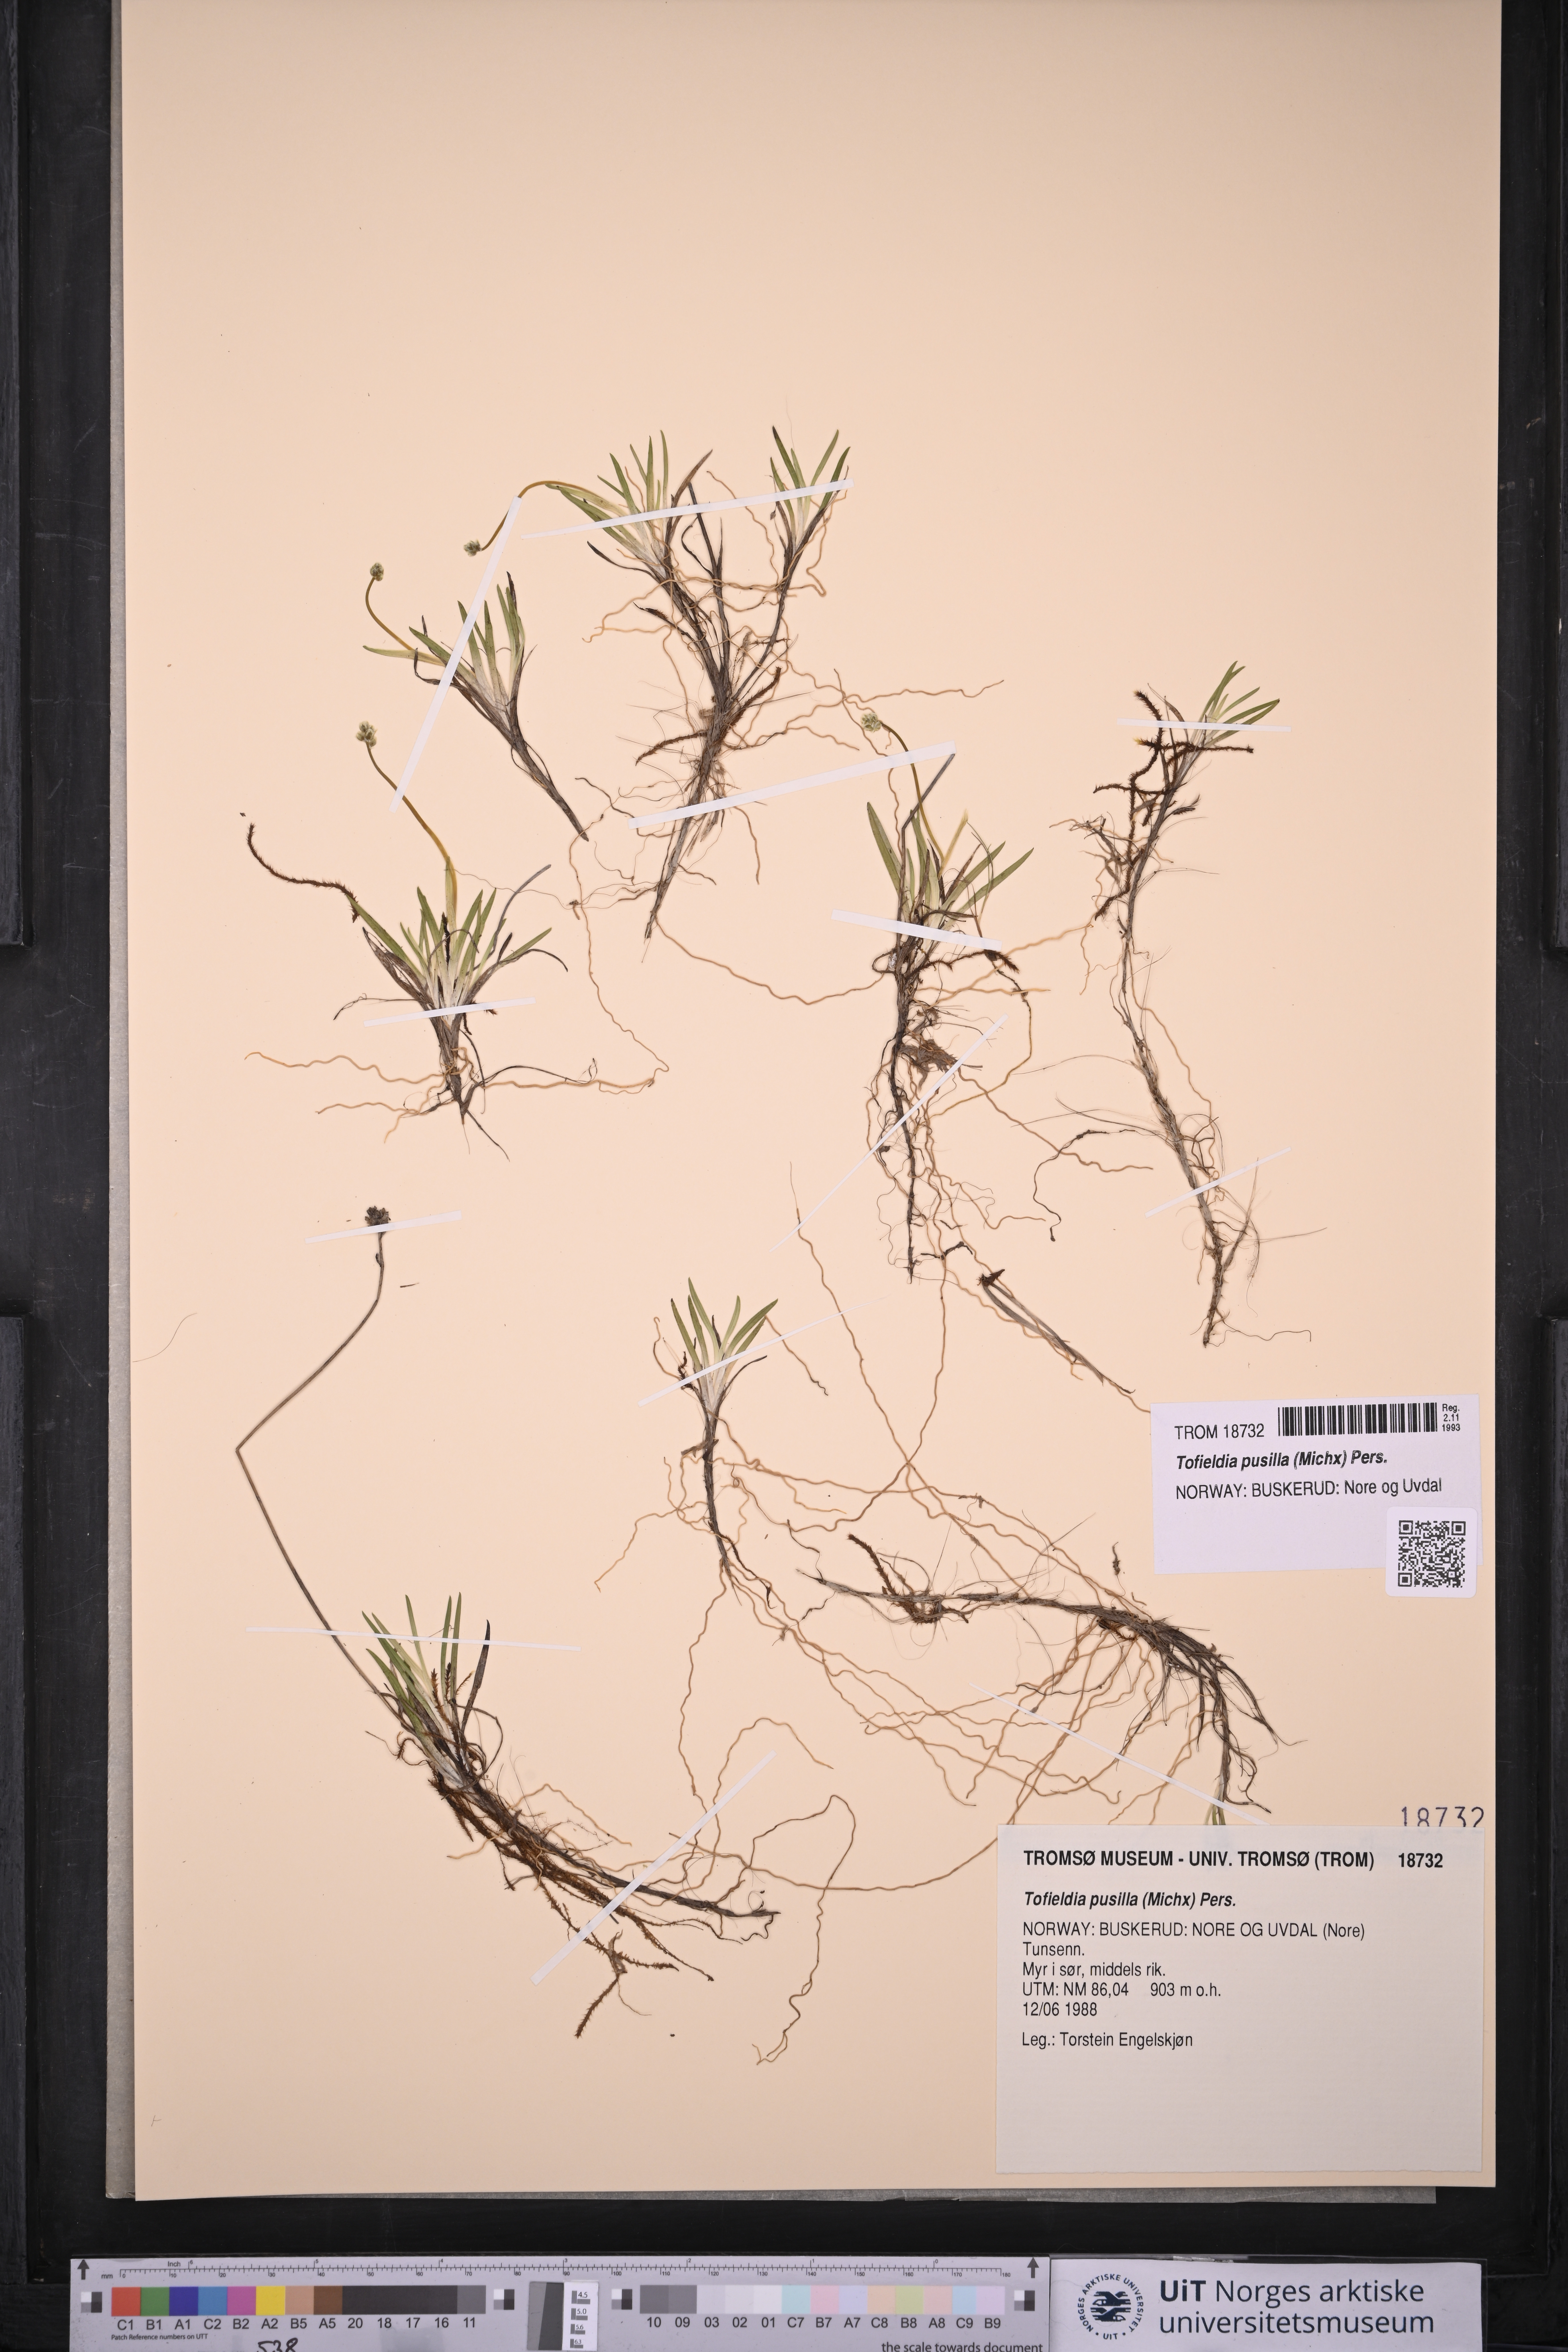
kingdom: Plantae
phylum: Tracheophyta
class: Liliopsida
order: Alismatales
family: Tofieldiaceae
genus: Tofieldia
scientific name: Tofieldia pusilla
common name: Scottish false asphodel
